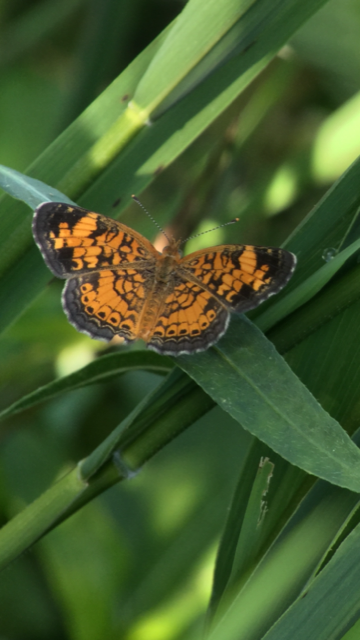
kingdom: Animalia
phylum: Arthropoda
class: Insecta
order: Lepidoptera
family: Nymphalidae
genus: Phyciodes
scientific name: Phyciodes tharos
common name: Pearl Crescent
